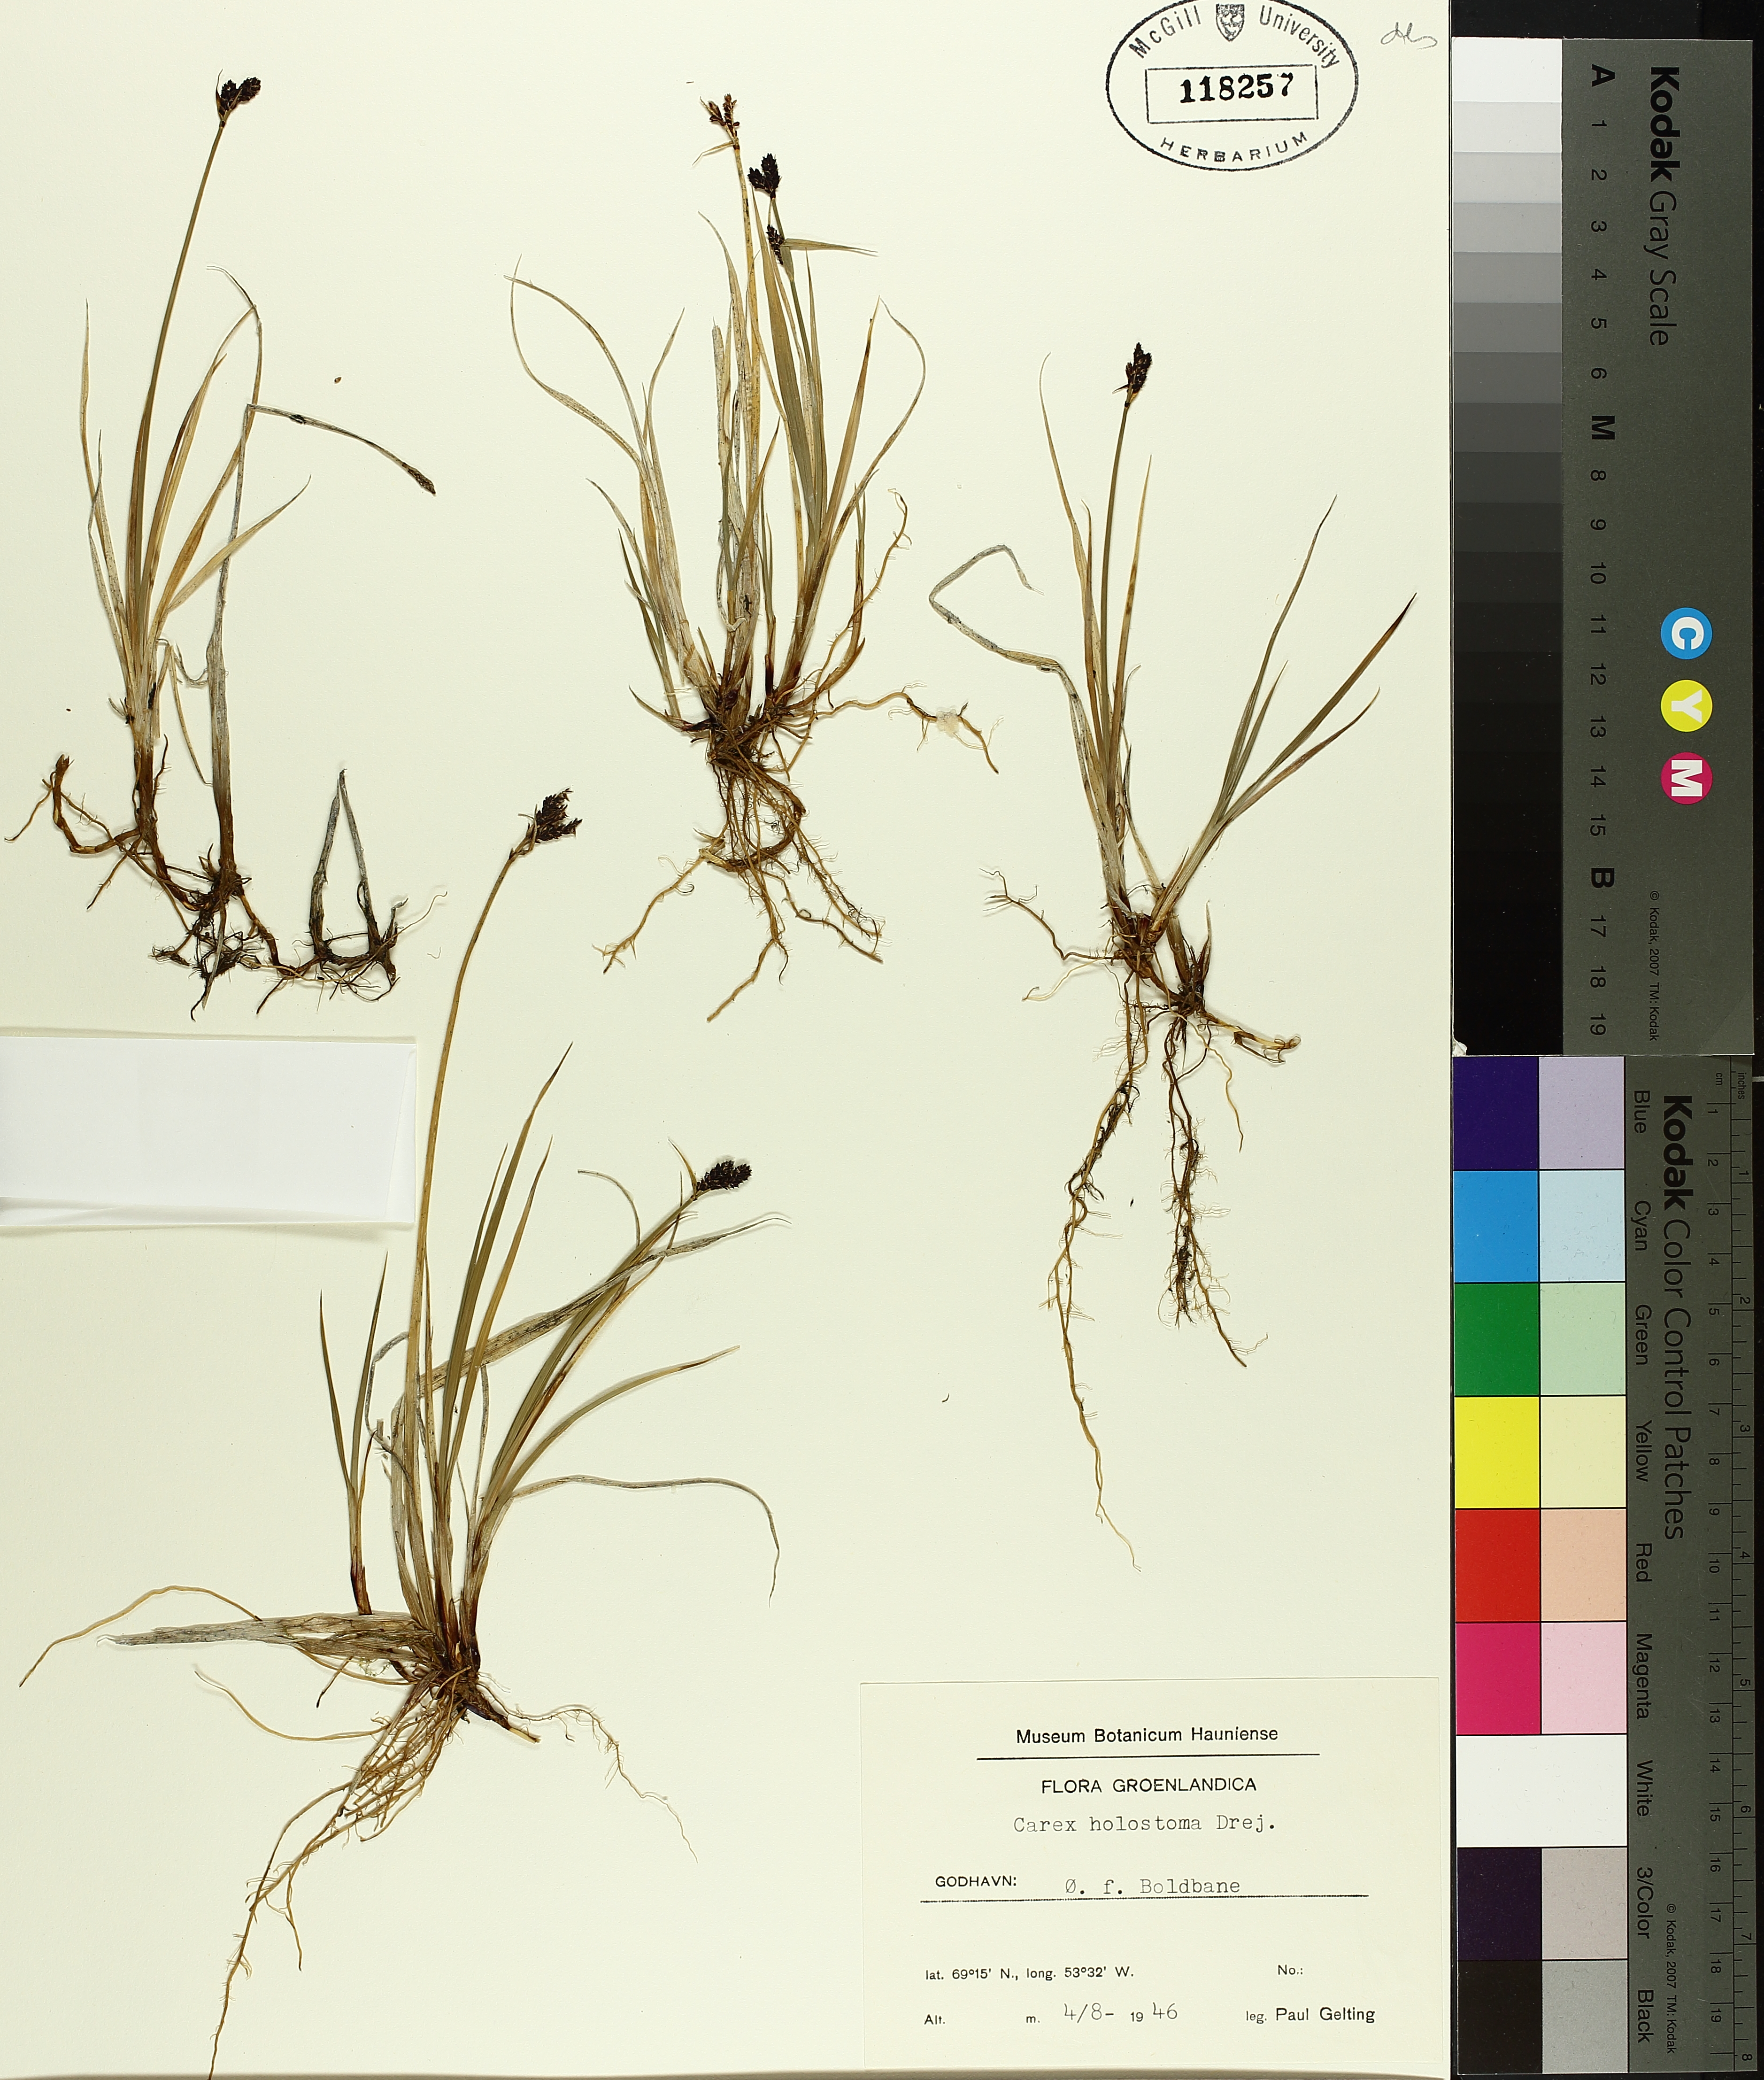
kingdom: Plantae
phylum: Tracheophyta
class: Liliopsida
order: Poales
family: Cyperaceae
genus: Carex
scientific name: Carex holostoma
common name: Arctic marsh sedge
